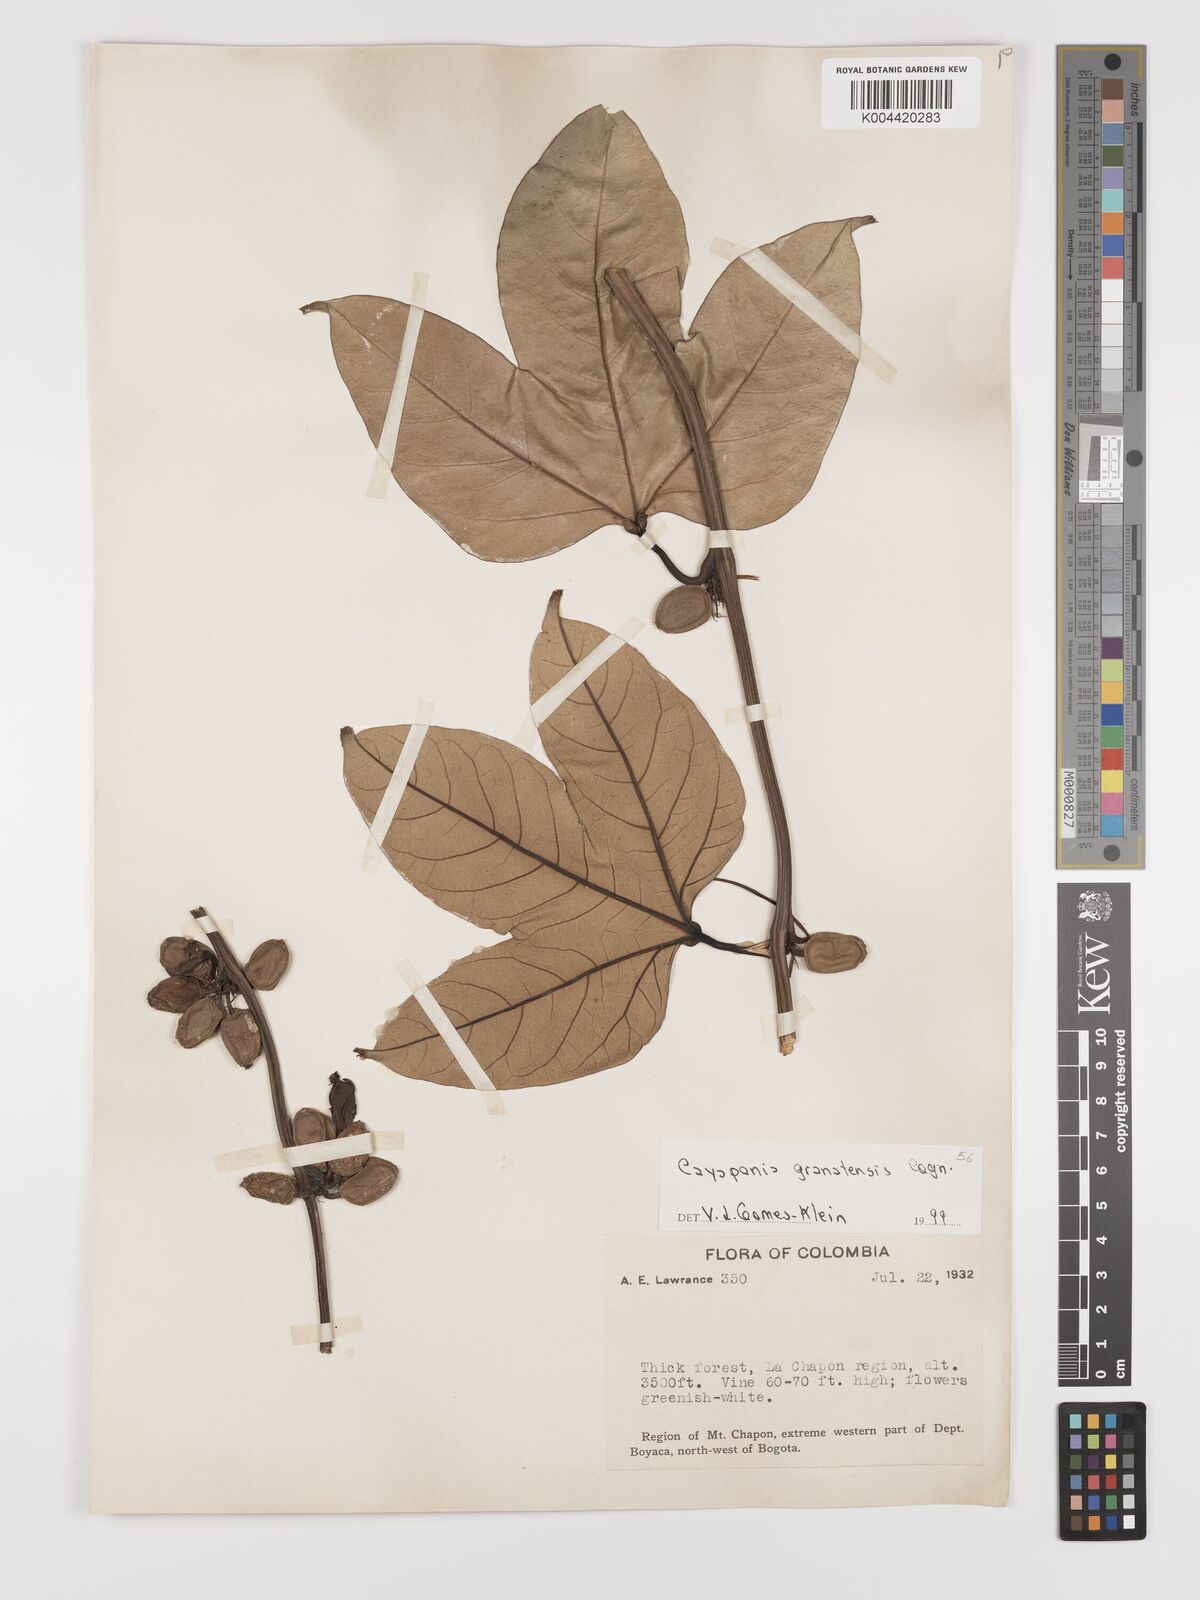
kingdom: Plantae
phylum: Tracheophyta
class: Magnoliopsida
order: Cucurbitales
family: Cucurbitaceae
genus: Cayaponia
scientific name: Cayaponia granatensis
